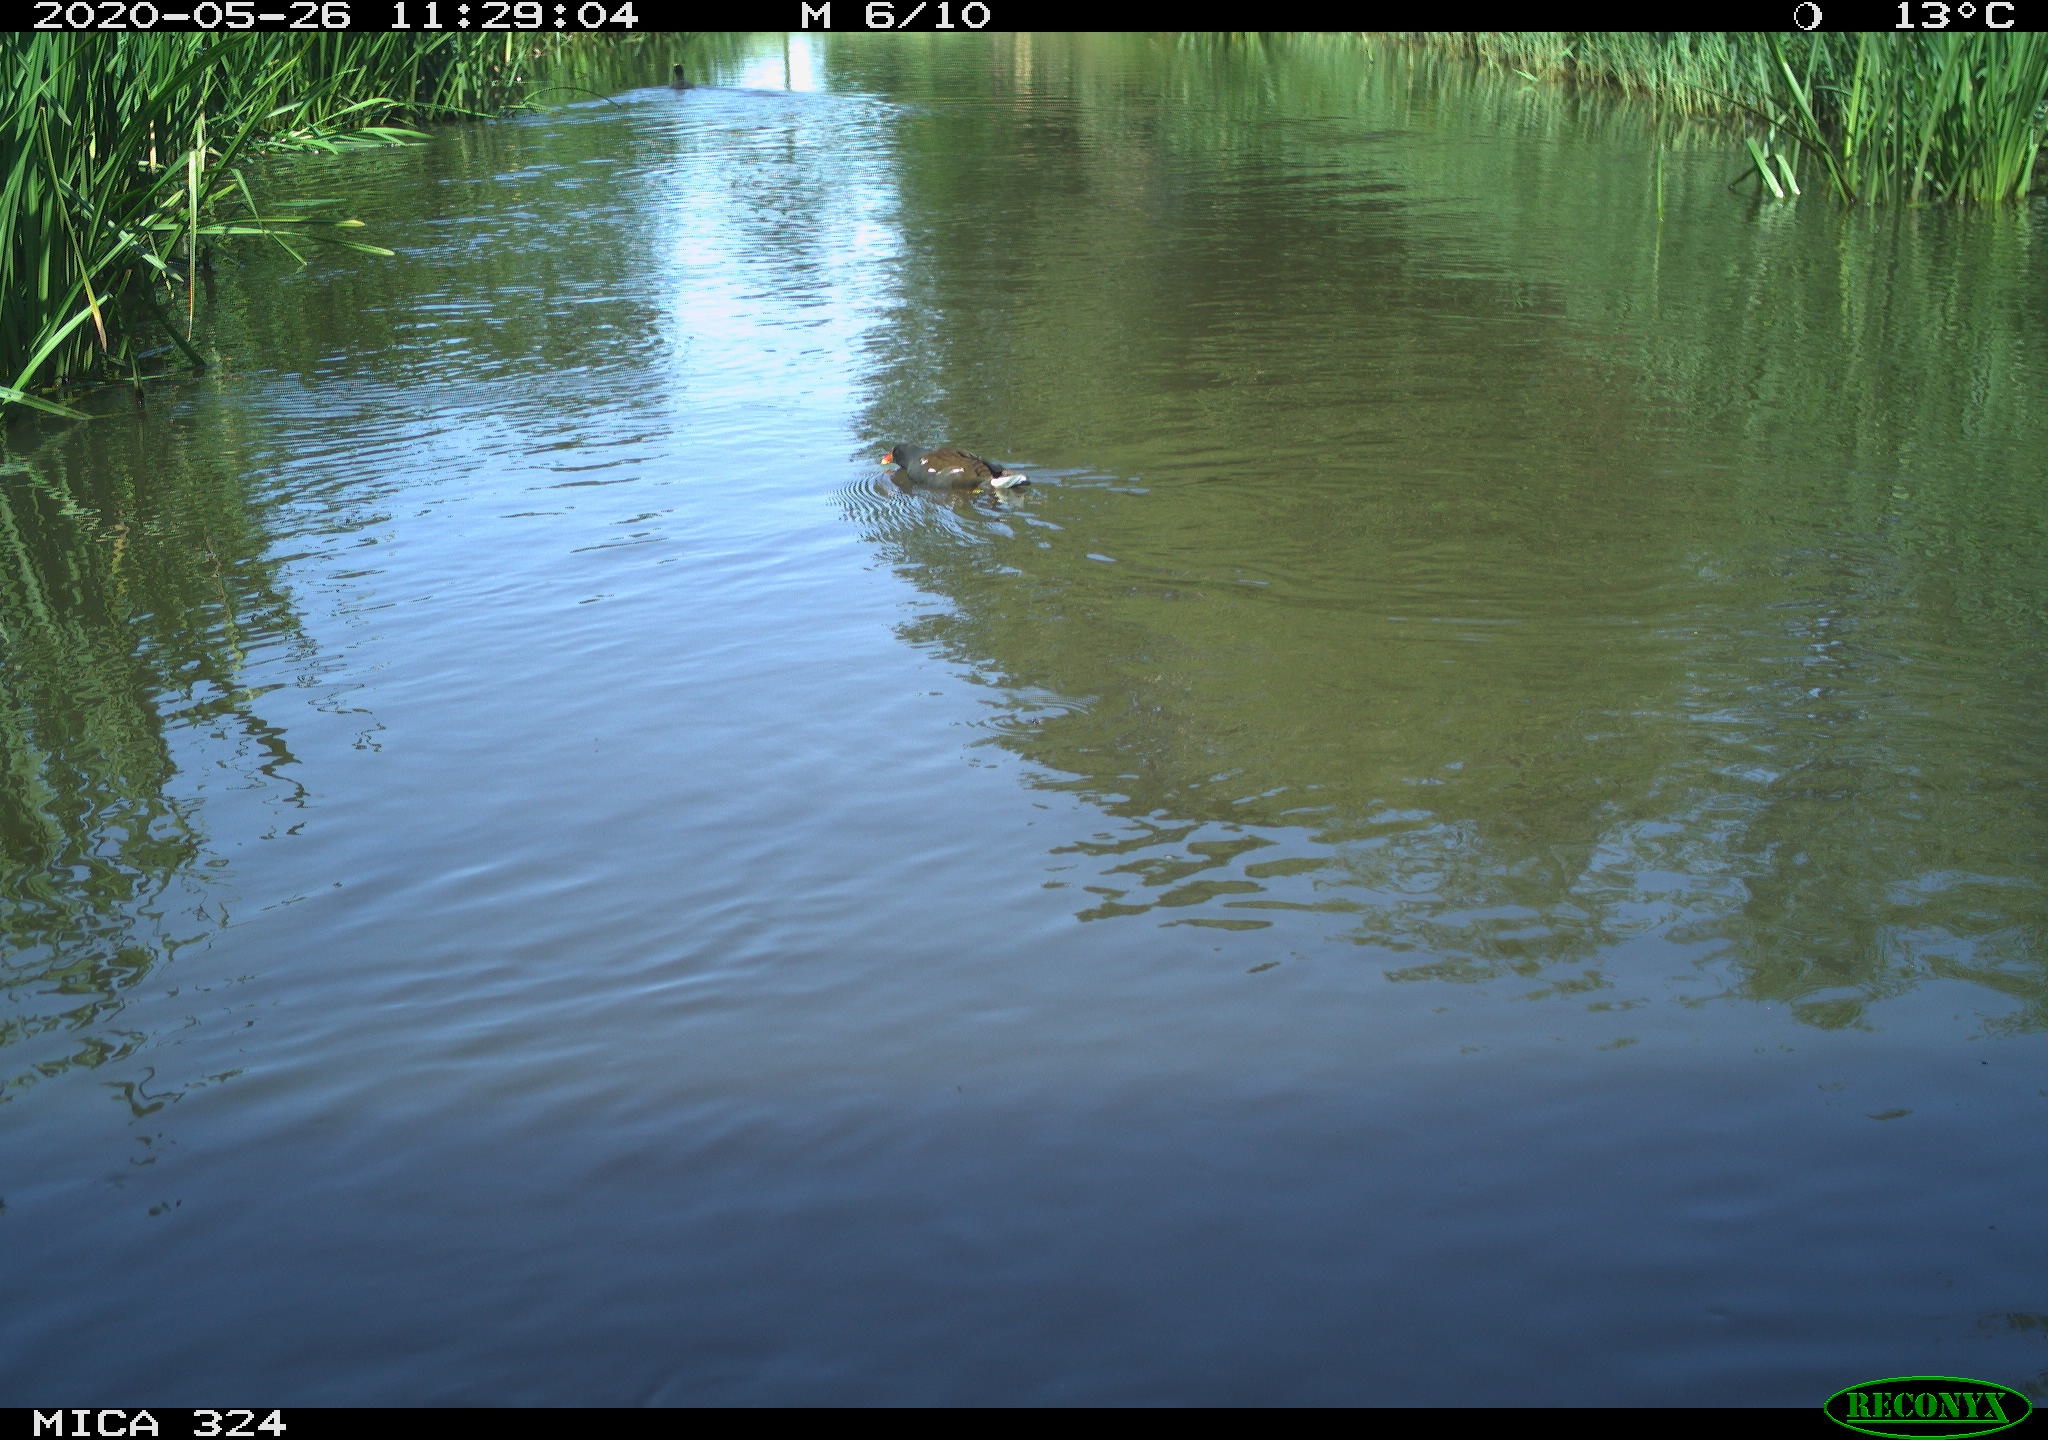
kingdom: Animalia
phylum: Chordata
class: Aves
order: Gruiformes
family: Rallidae
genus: Fulica
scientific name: Fulica atra
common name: Eurasian coot
